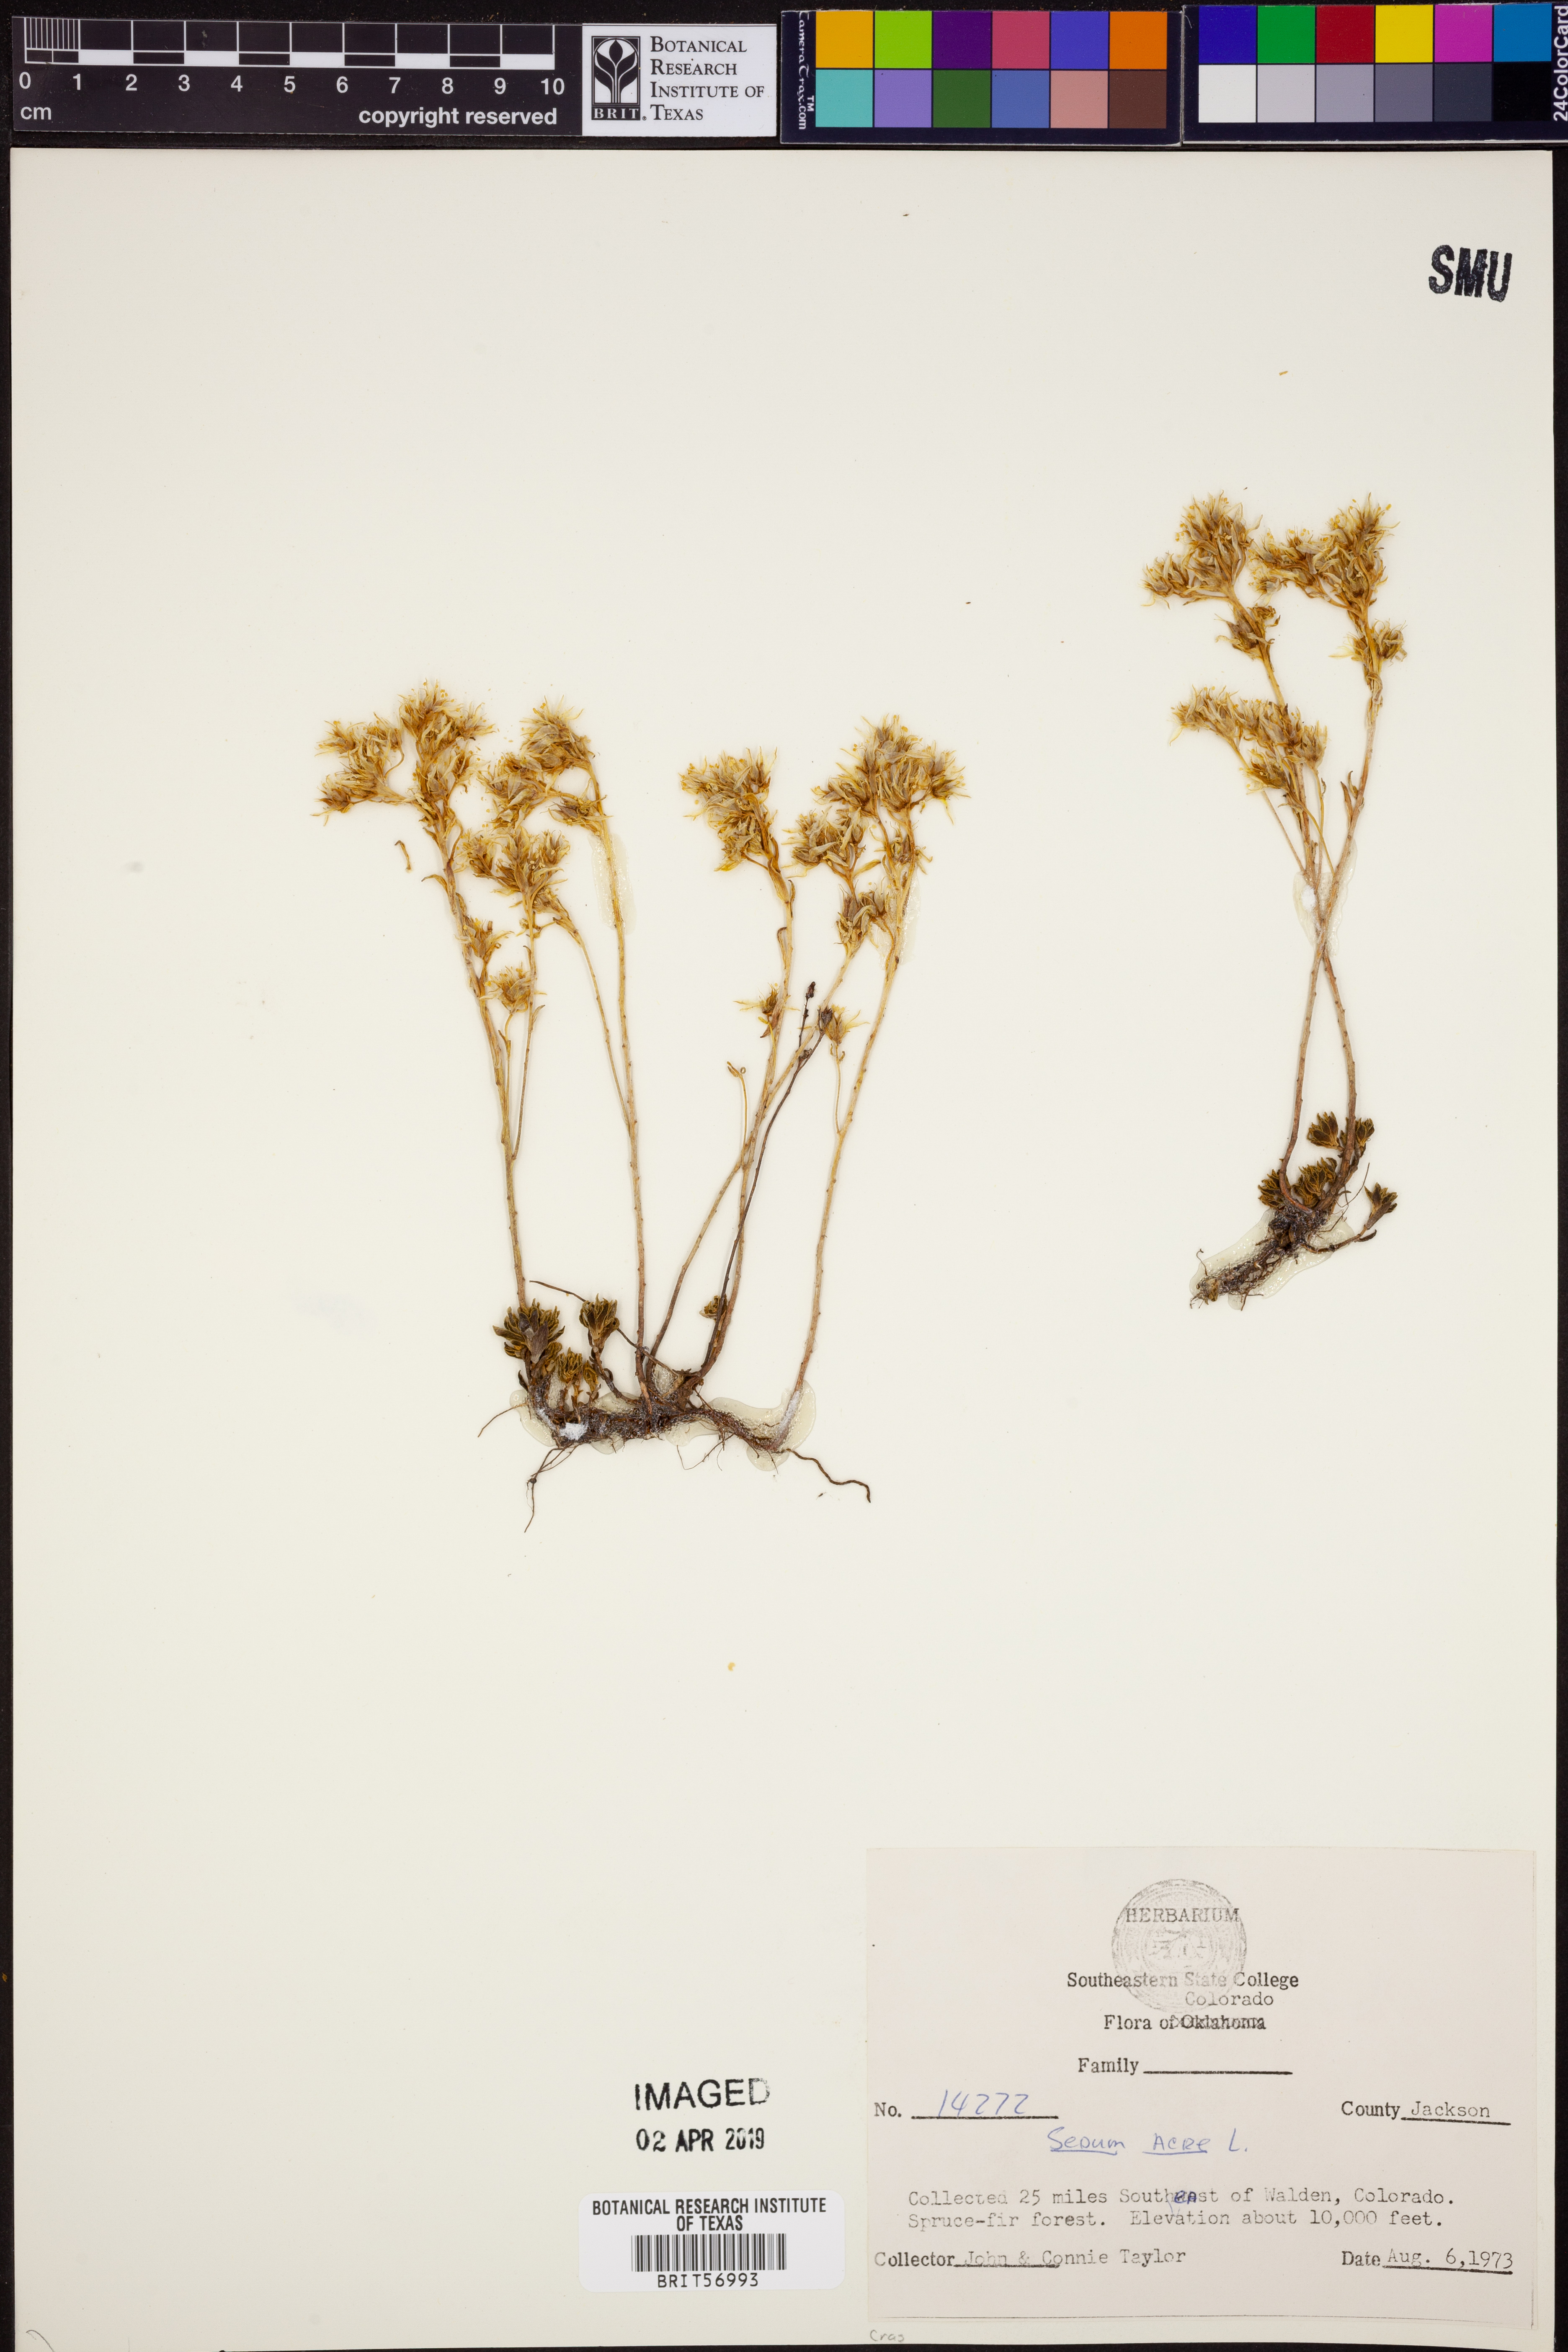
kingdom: Plantae
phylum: Tracheophyta
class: Magnoliopsida
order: Saxifragales
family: Crassulaceae
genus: Sedum
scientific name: Sedum acre
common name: Biting stonecrop
